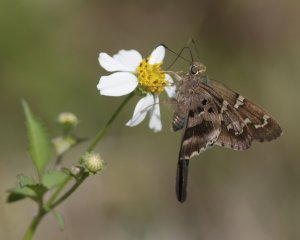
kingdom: Animalia
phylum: Arthropoda
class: Insecta
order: Lepidoptera
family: Hesperiidae
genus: Urbanus
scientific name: Urbanus proteus
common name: Long-tailed Skipper
